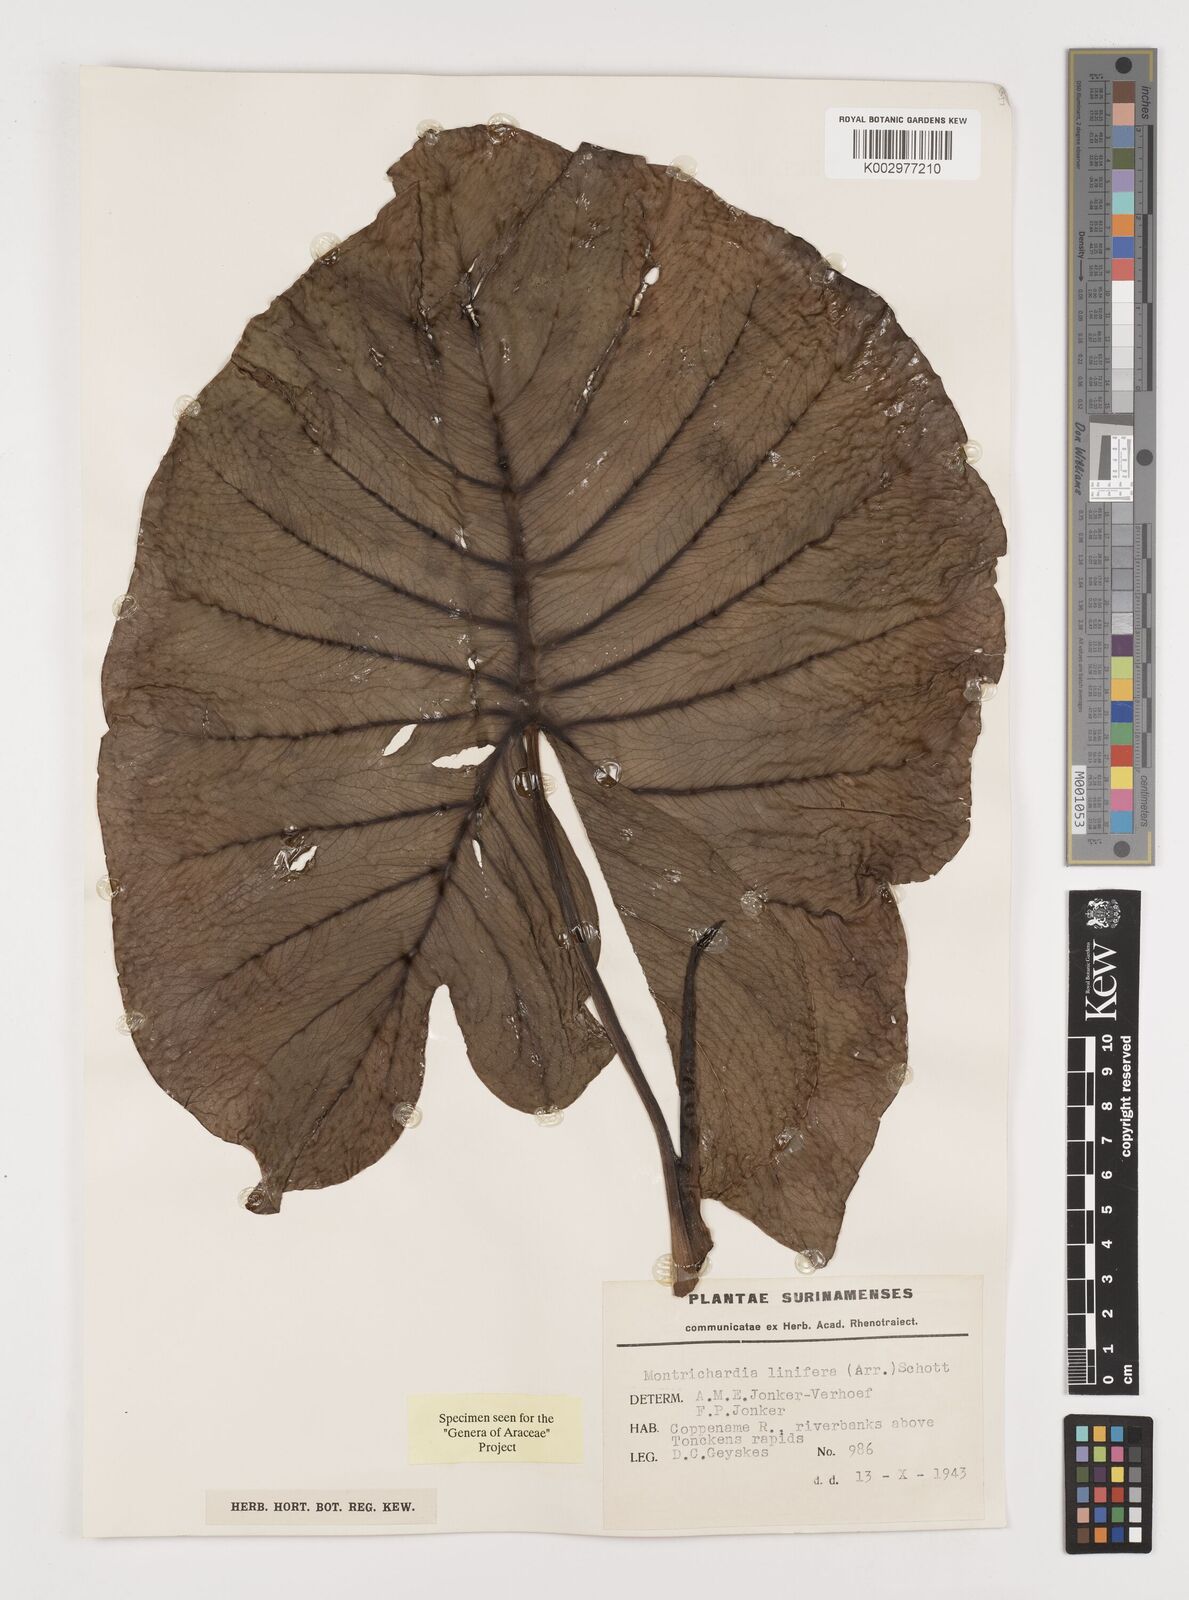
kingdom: Plantae
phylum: Tracheophyta
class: Liliopsida
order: Alismatales
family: Araceae
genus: Montrichardia
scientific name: Montrichardia linifera
